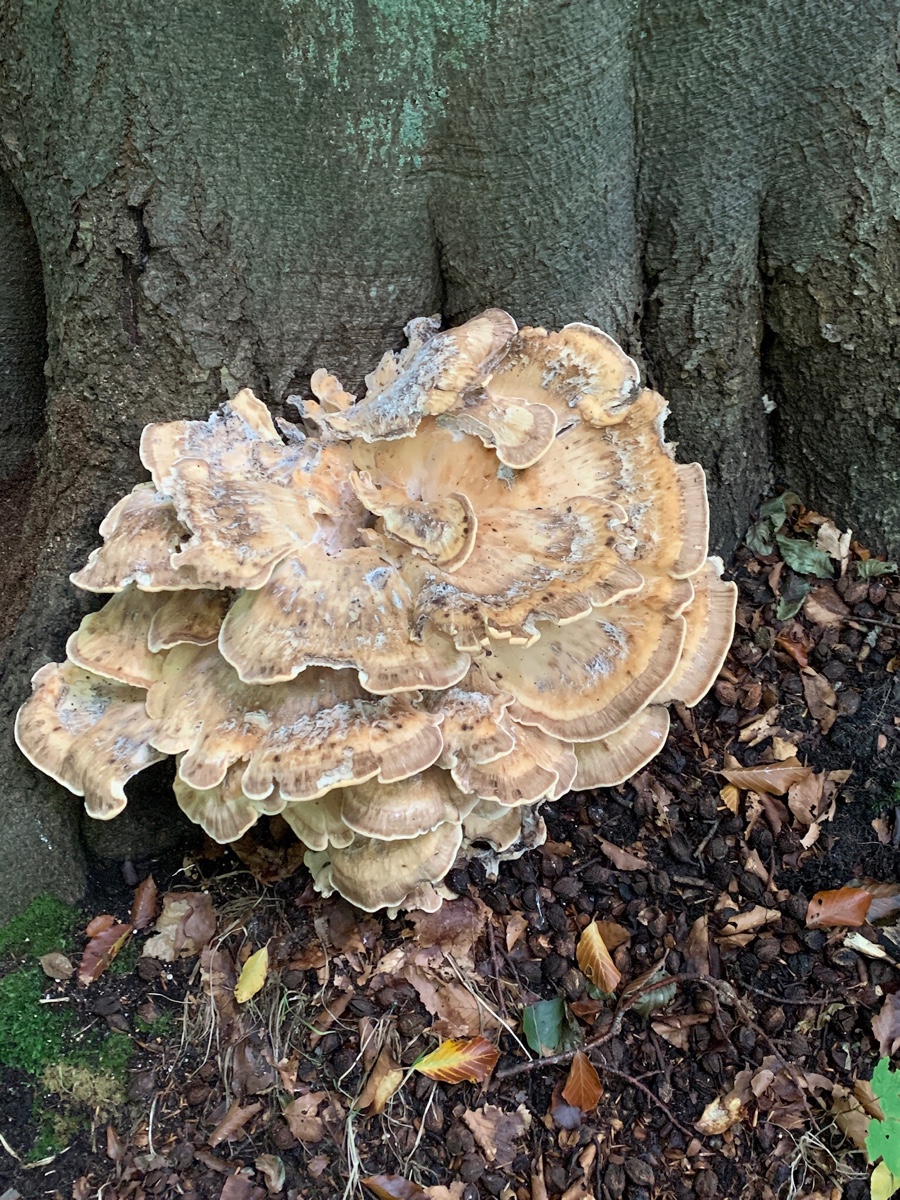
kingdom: Fungi
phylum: Basidiomycota
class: Agaricomycetes
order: Polyporales
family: Meripilaceae
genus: Meripilus
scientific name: Meripilus giganteus
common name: kæmpeporesvamp
